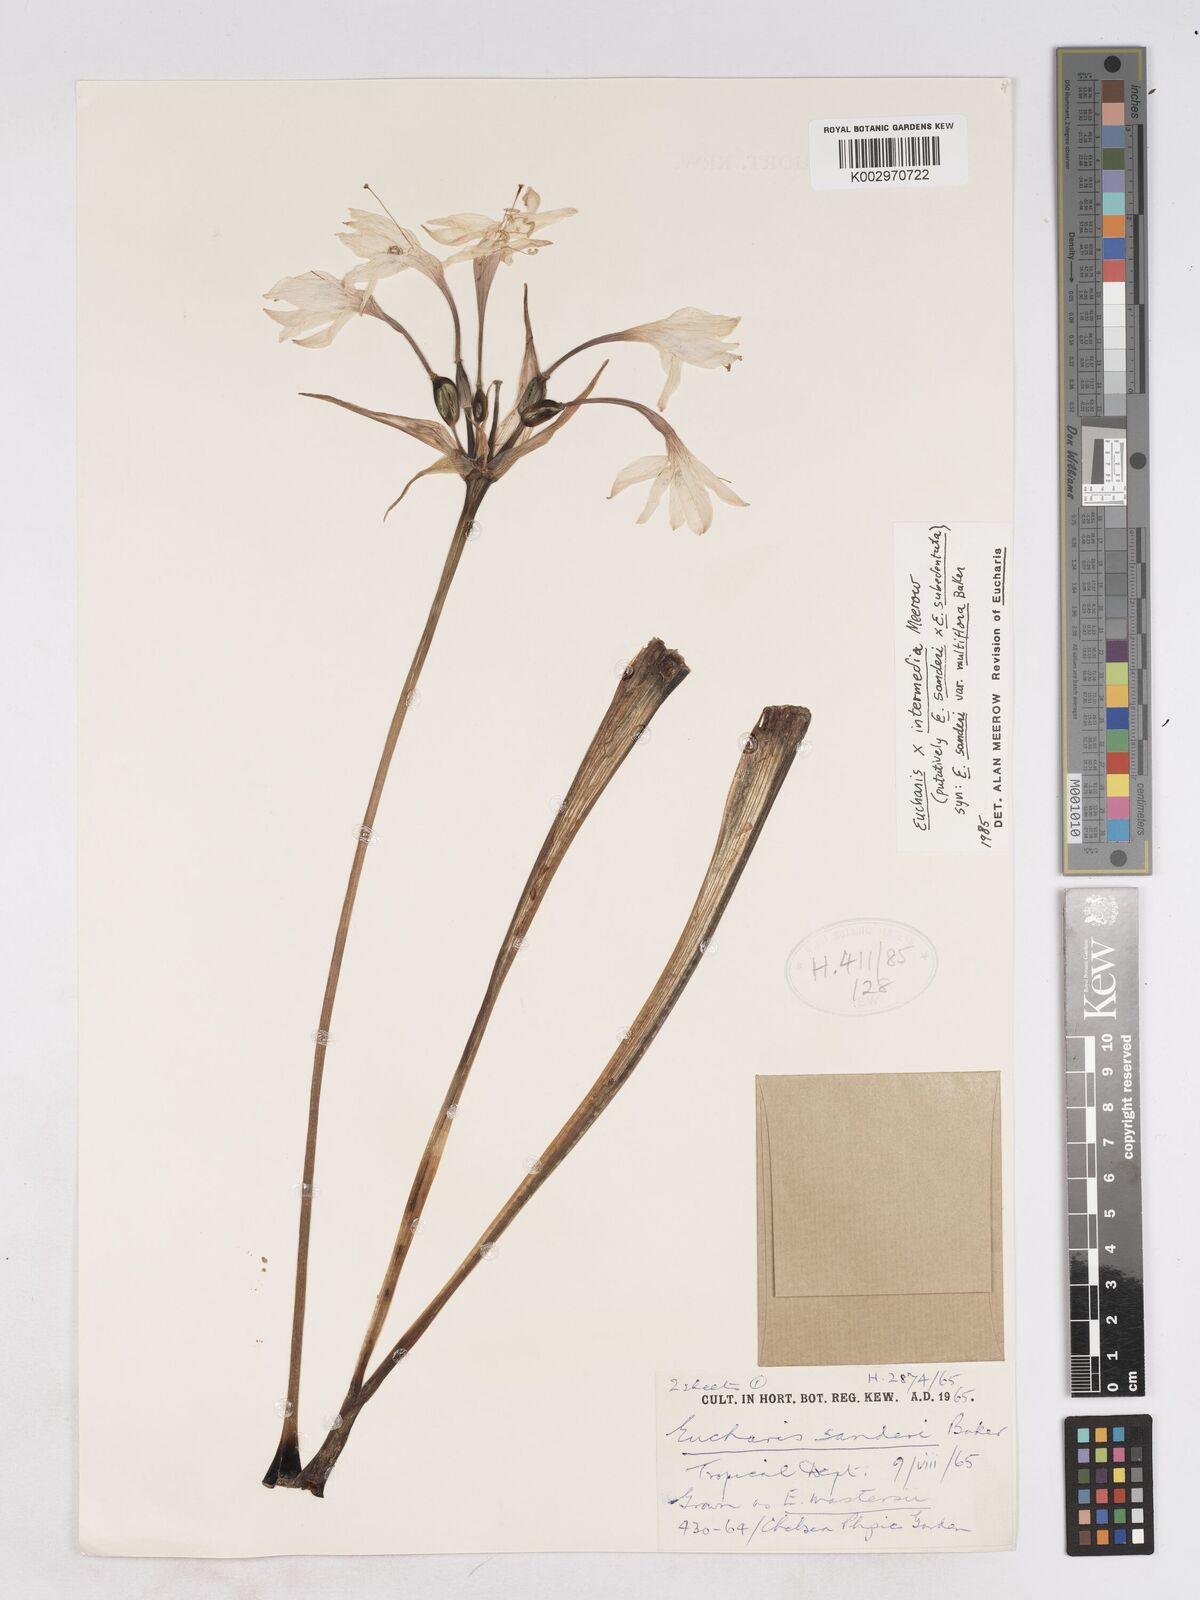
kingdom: Plantae
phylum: Tracheophyta
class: Liliopsida
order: Asparagales
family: Amaryllidaceae
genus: Calicharis
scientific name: Calicharis butcheri
